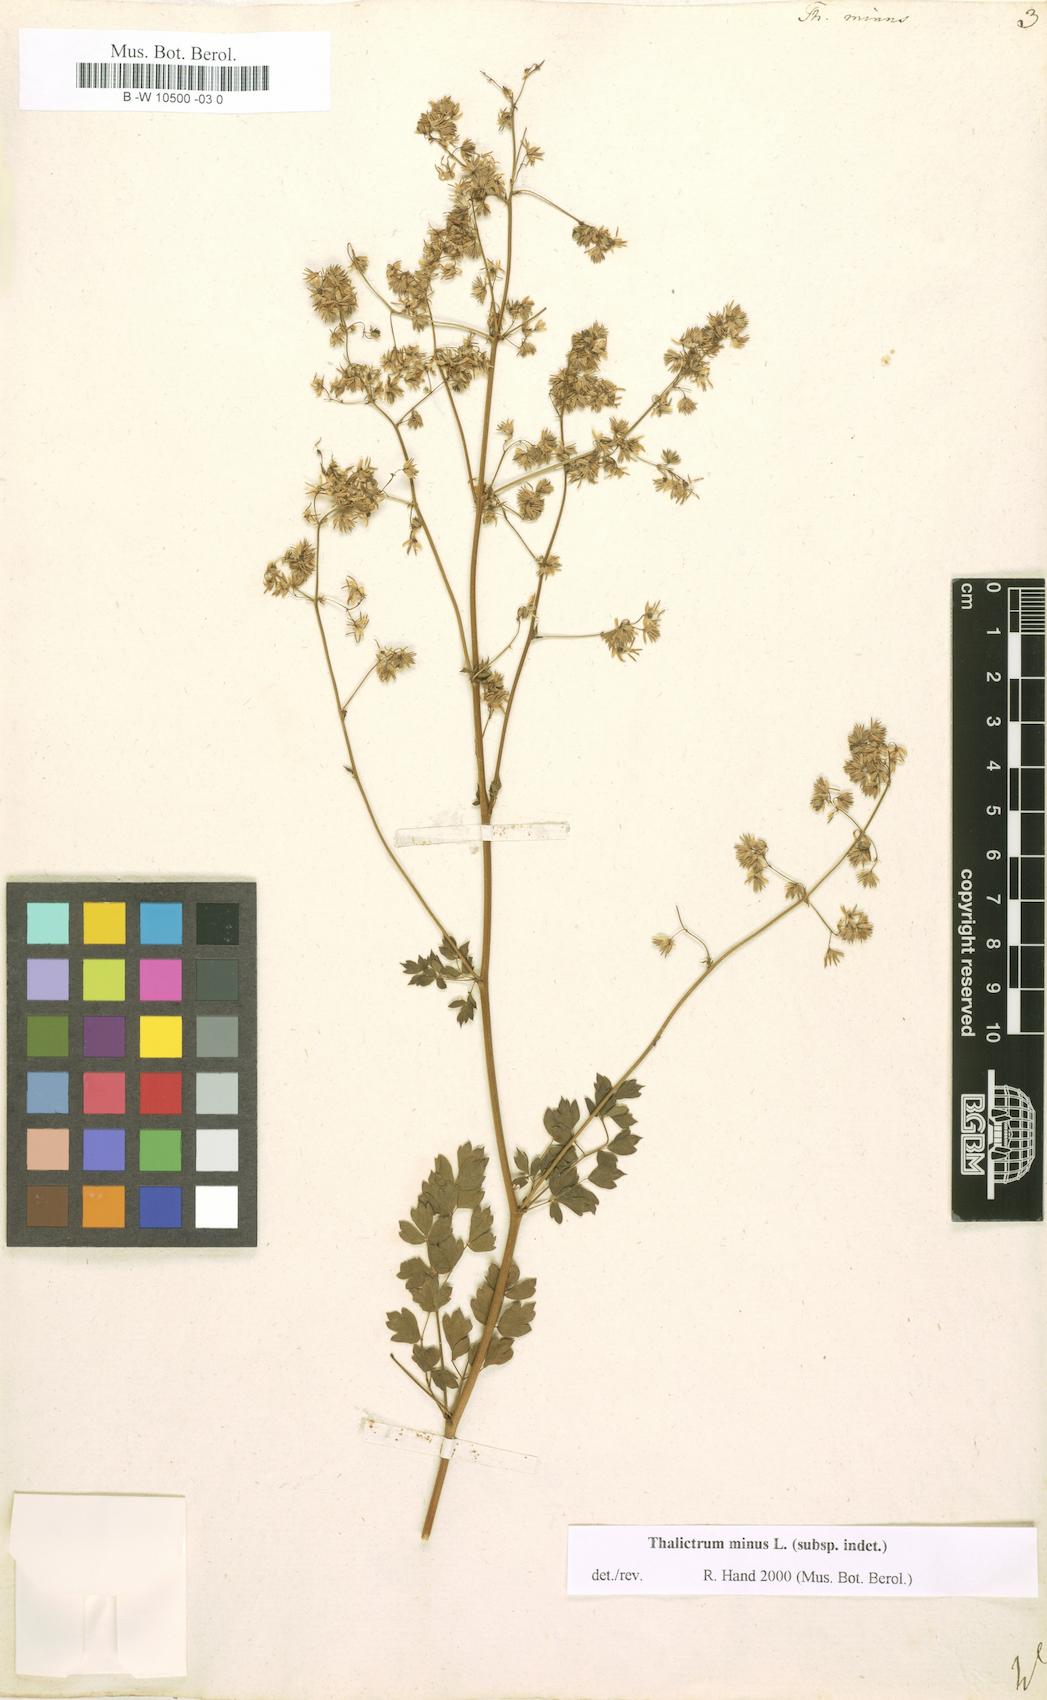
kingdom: Plantae
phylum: Tracheophyta
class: Magnoliopsida
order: Ranunculales
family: Ranunculaceae
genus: Thalictrum
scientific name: Thalictrum minus
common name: Lesser meadow-rue
